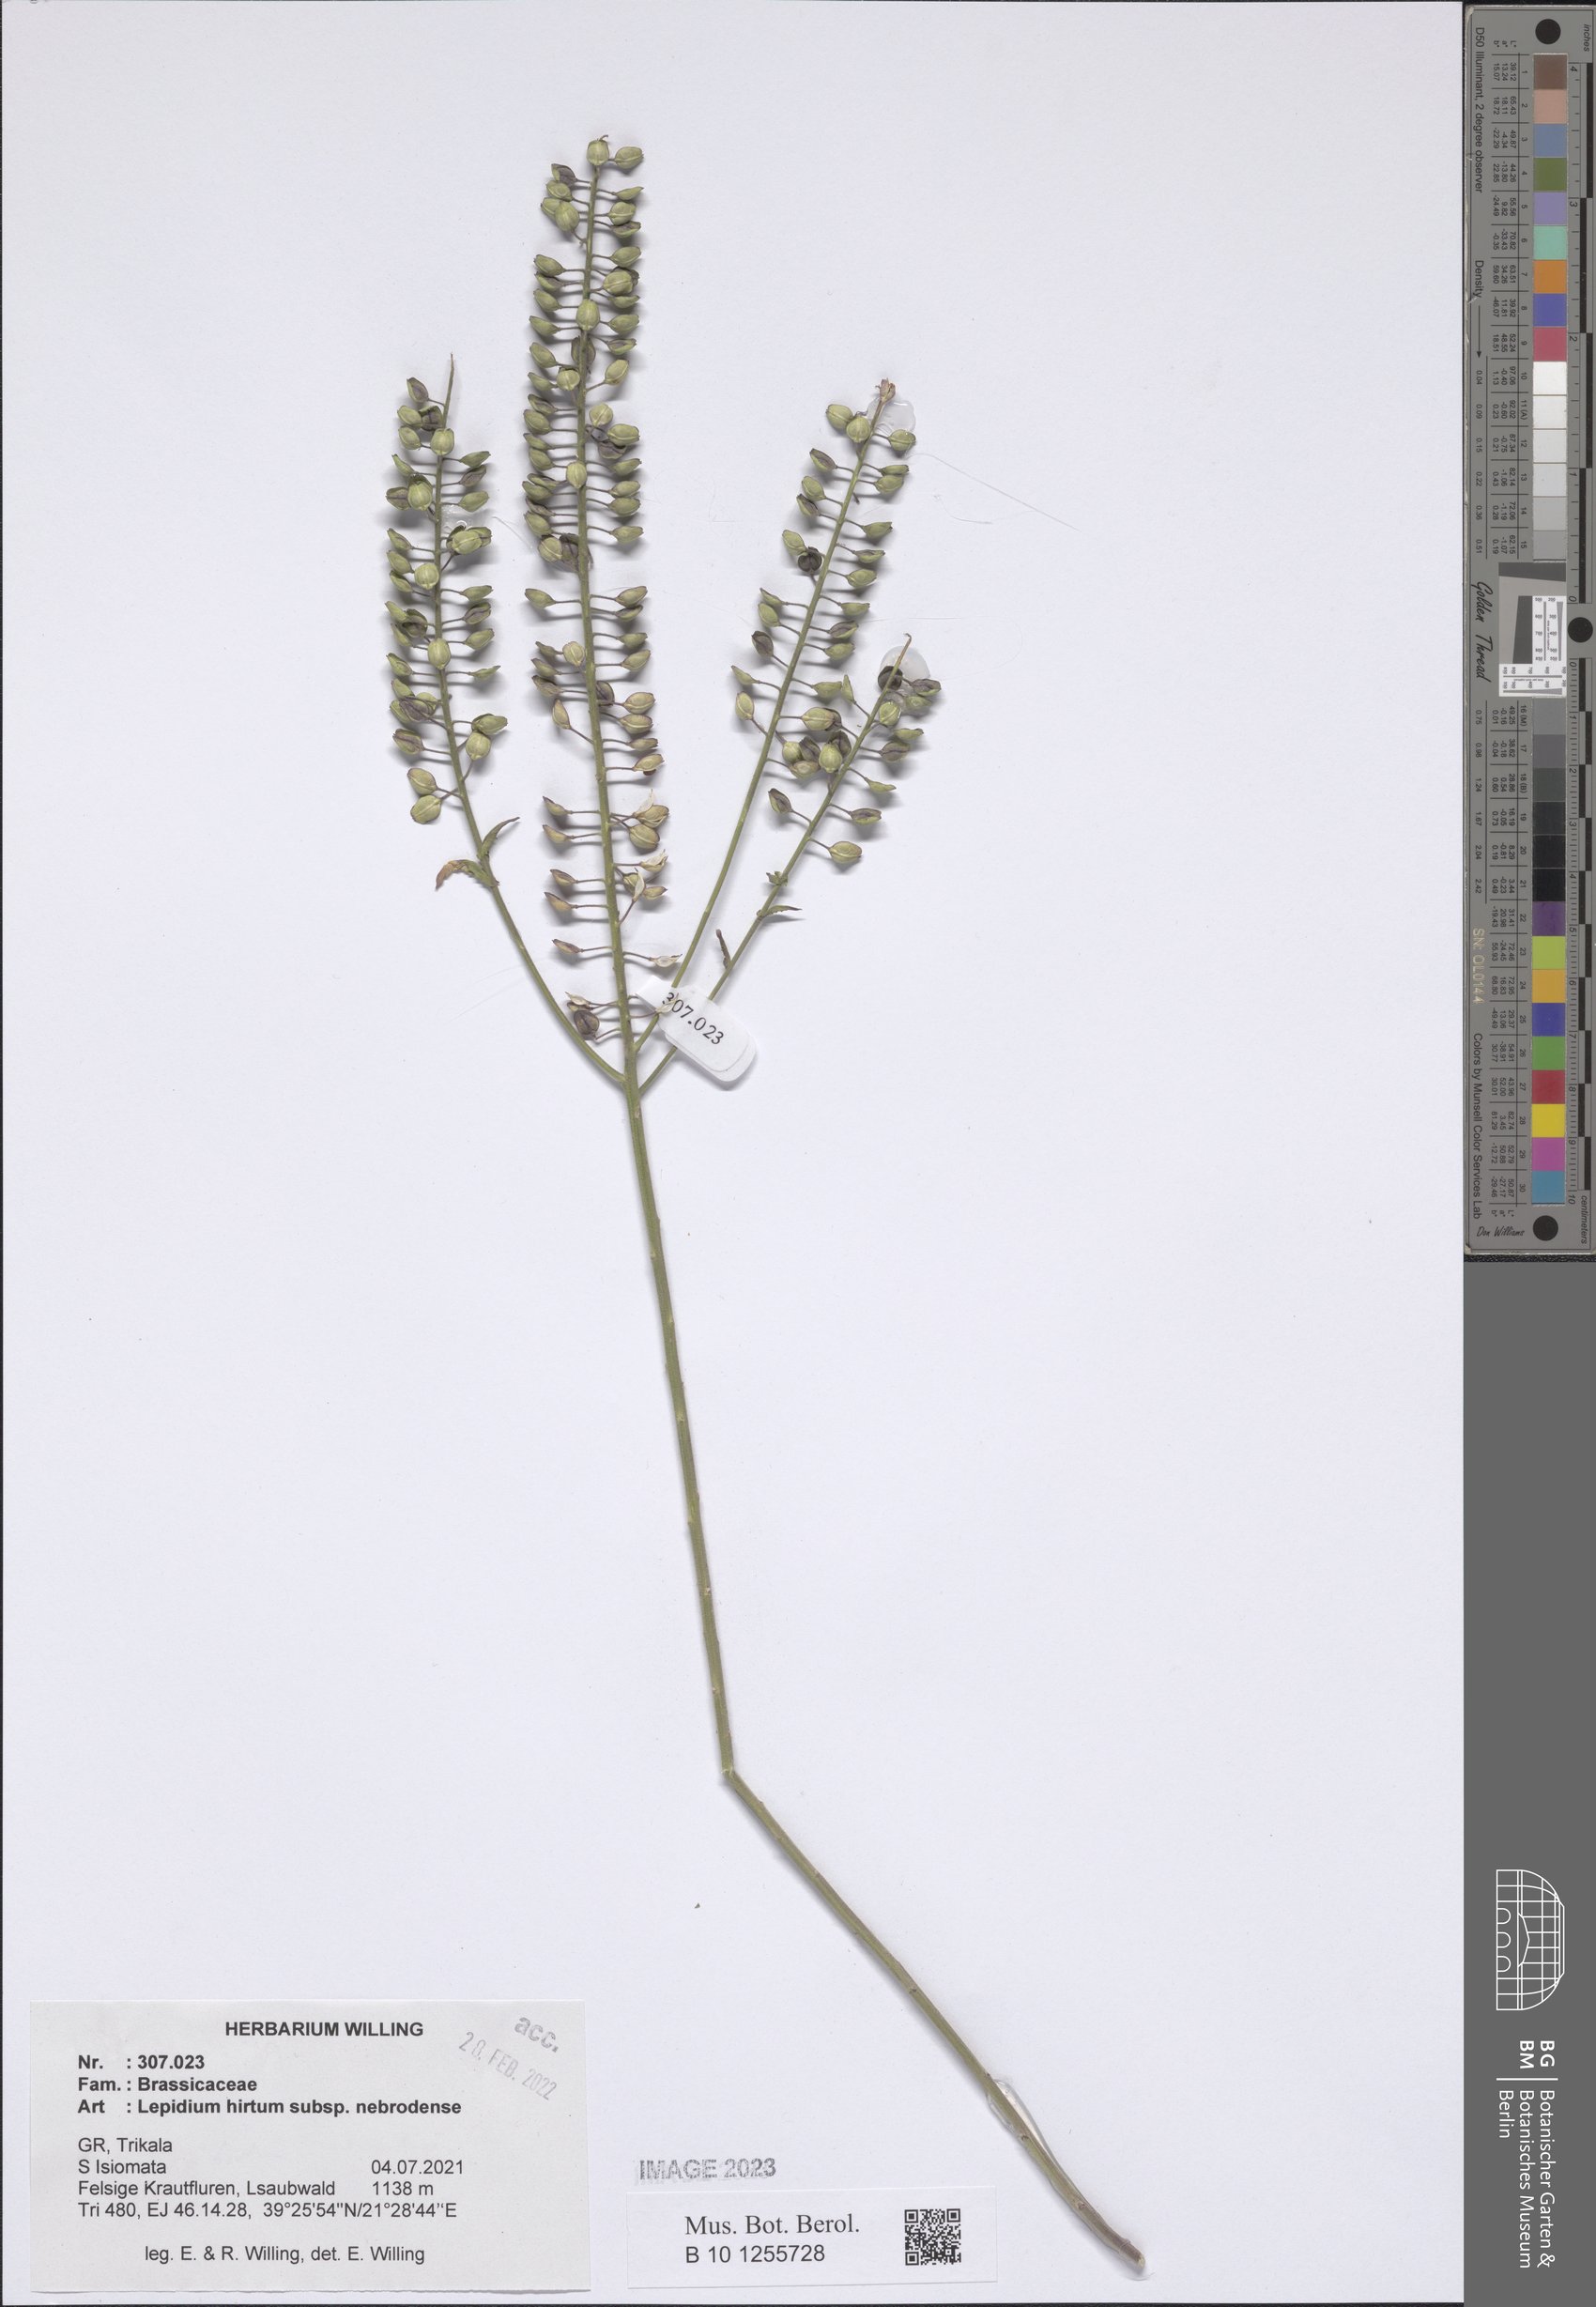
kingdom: Plantae
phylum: Tracheophyta
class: Magnoliopsida
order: Brassicales
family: Brassicaceae
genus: Lepidium
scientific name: Lepidium hirtum
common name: Mediterranean pepperweed
